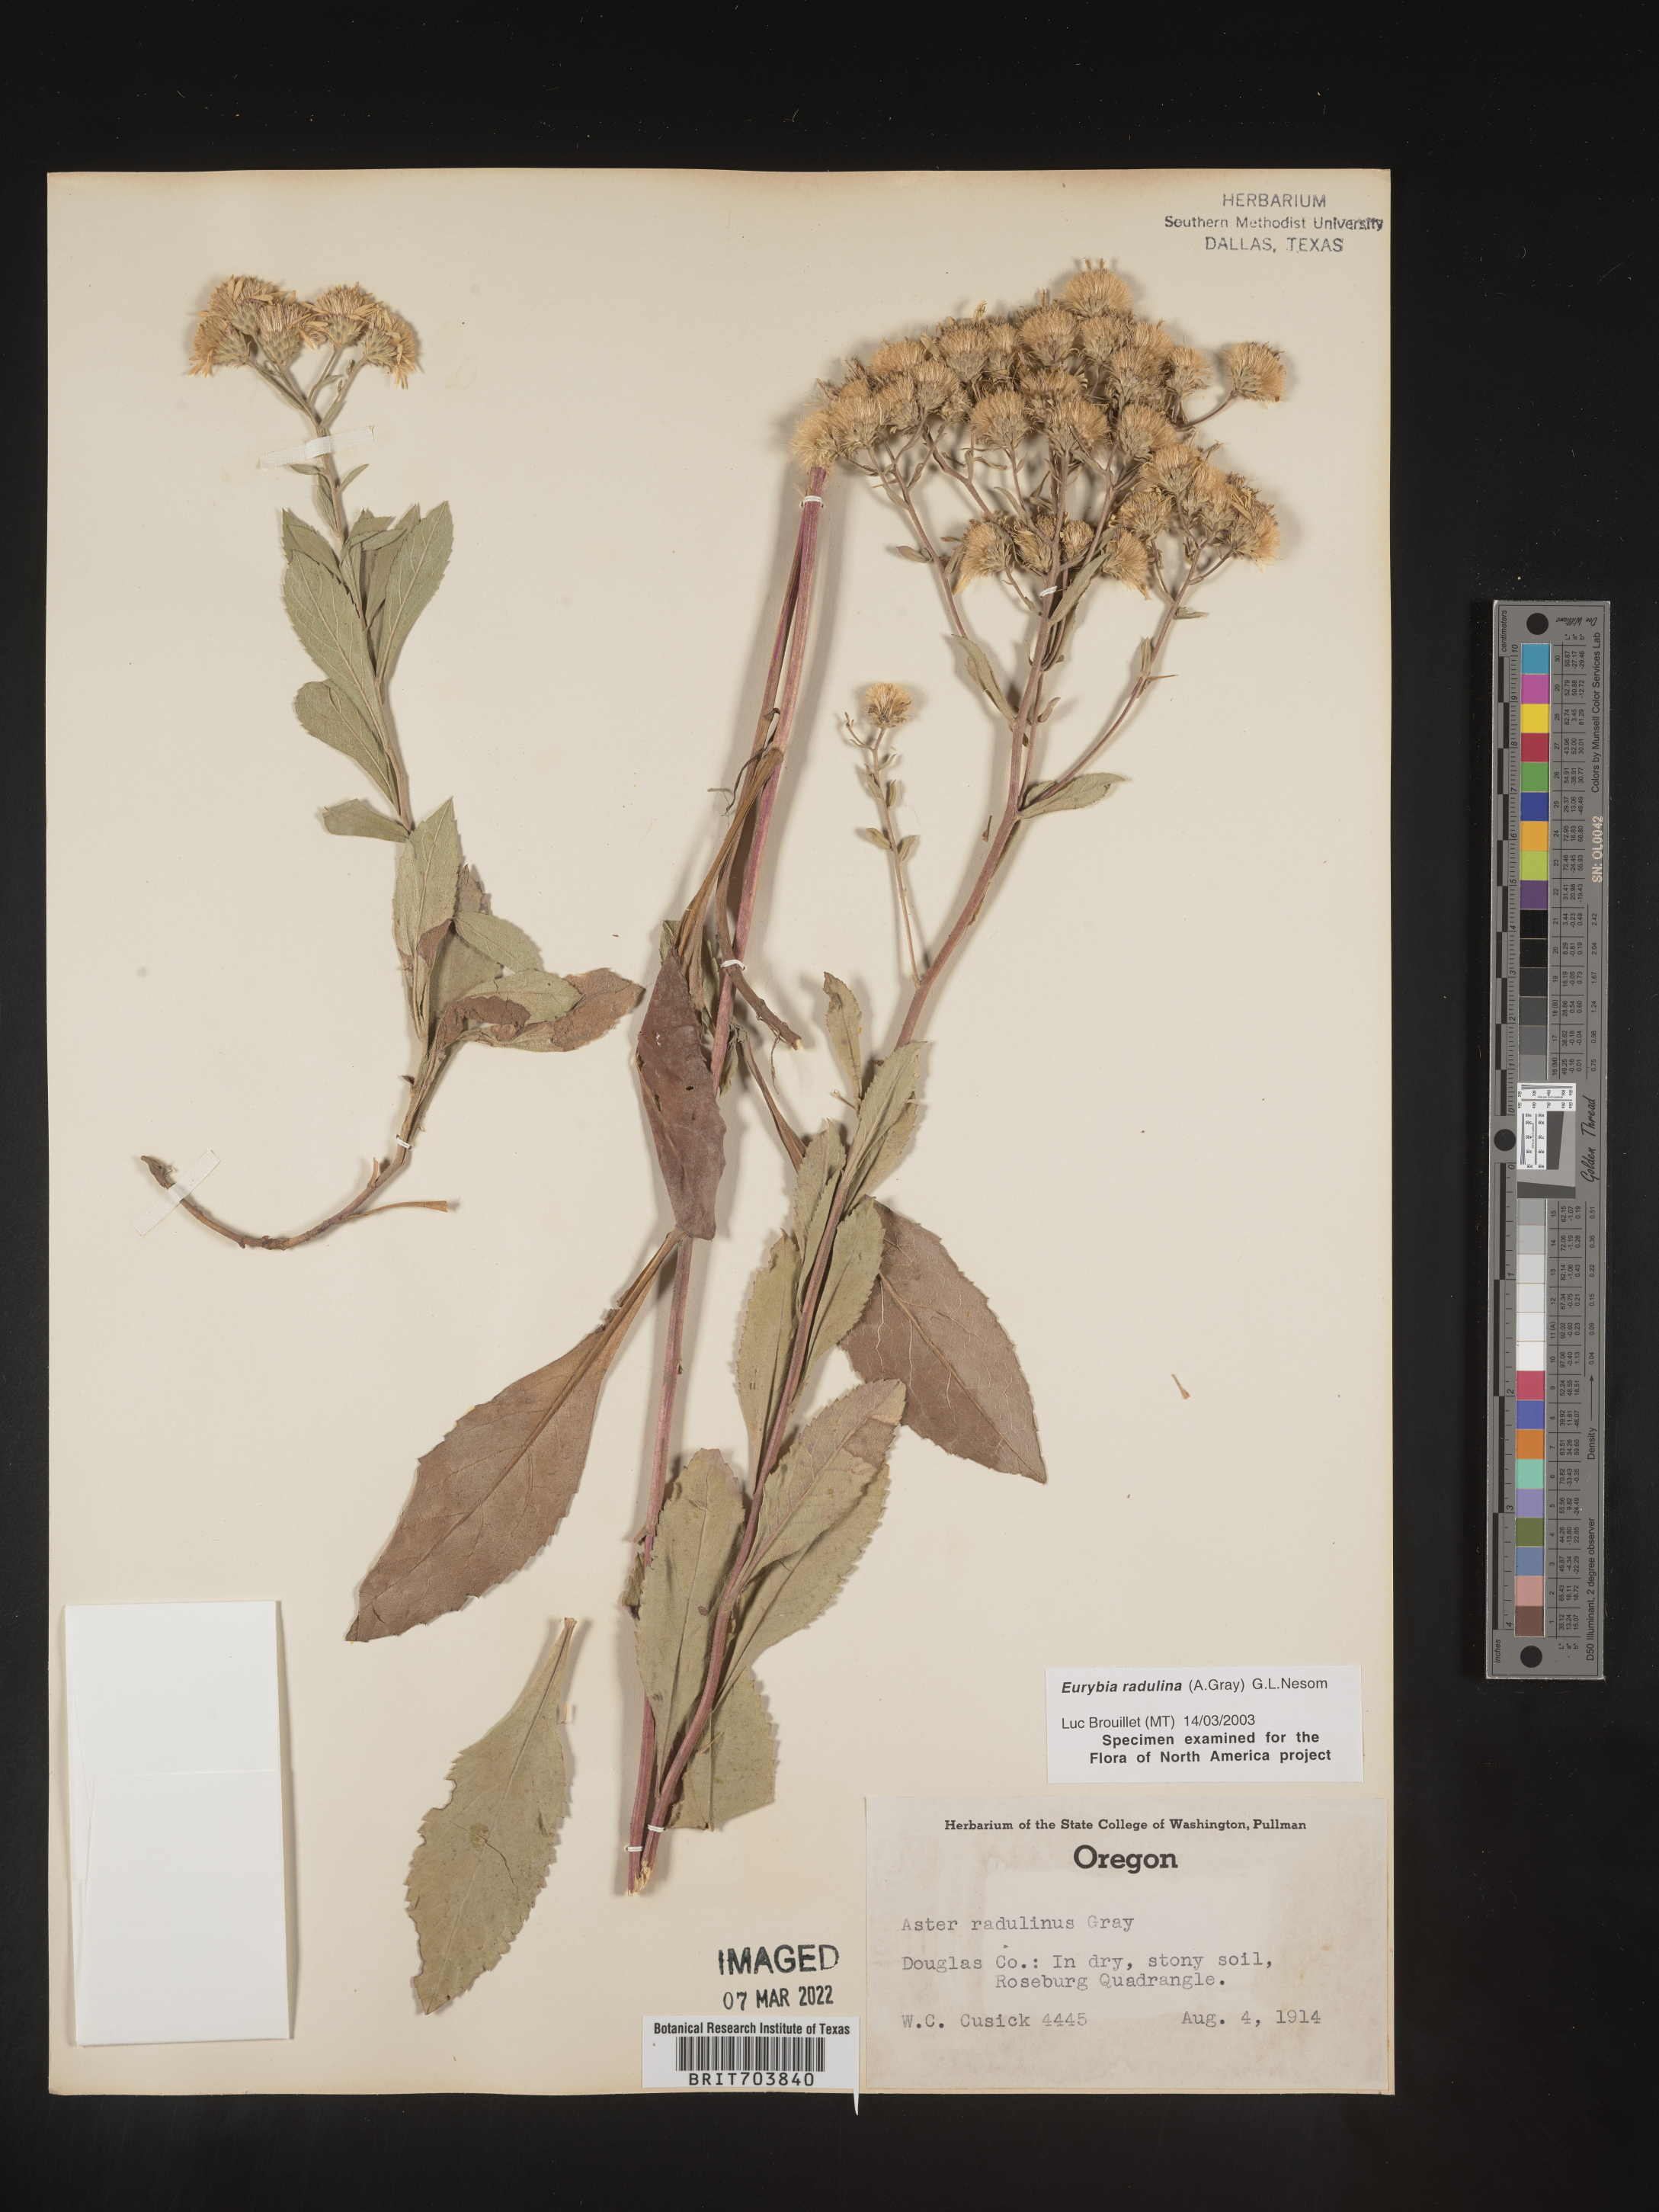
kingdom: Plantae
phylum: Tracheophyta
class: Magnoliopsida
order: Asterales
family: Asteraceae
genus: Eurybia
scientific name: Eurybia radulina
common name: Rough-leaved aster
